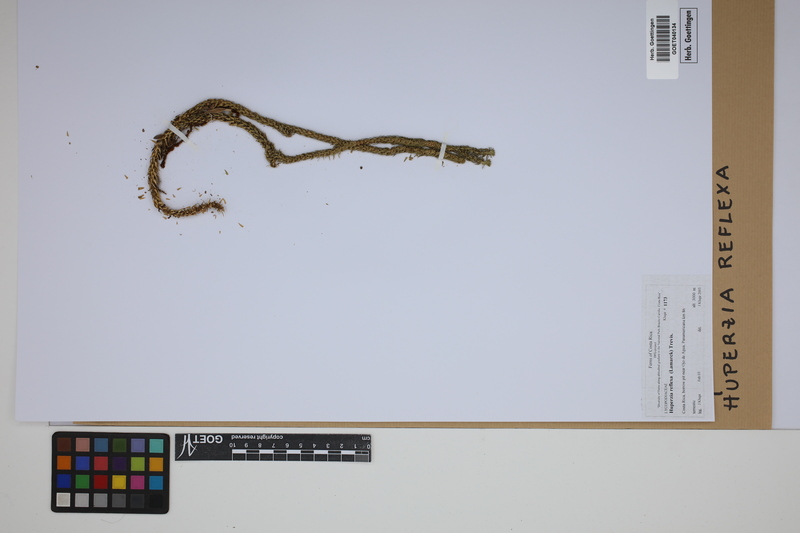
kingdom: Plantae
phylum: Tracheophyta
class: Lycopodiopsida
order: Lycopodiales
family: Lycopodiaceae
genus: Phlegmariurus
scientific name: Phlegmariurus reflexus
